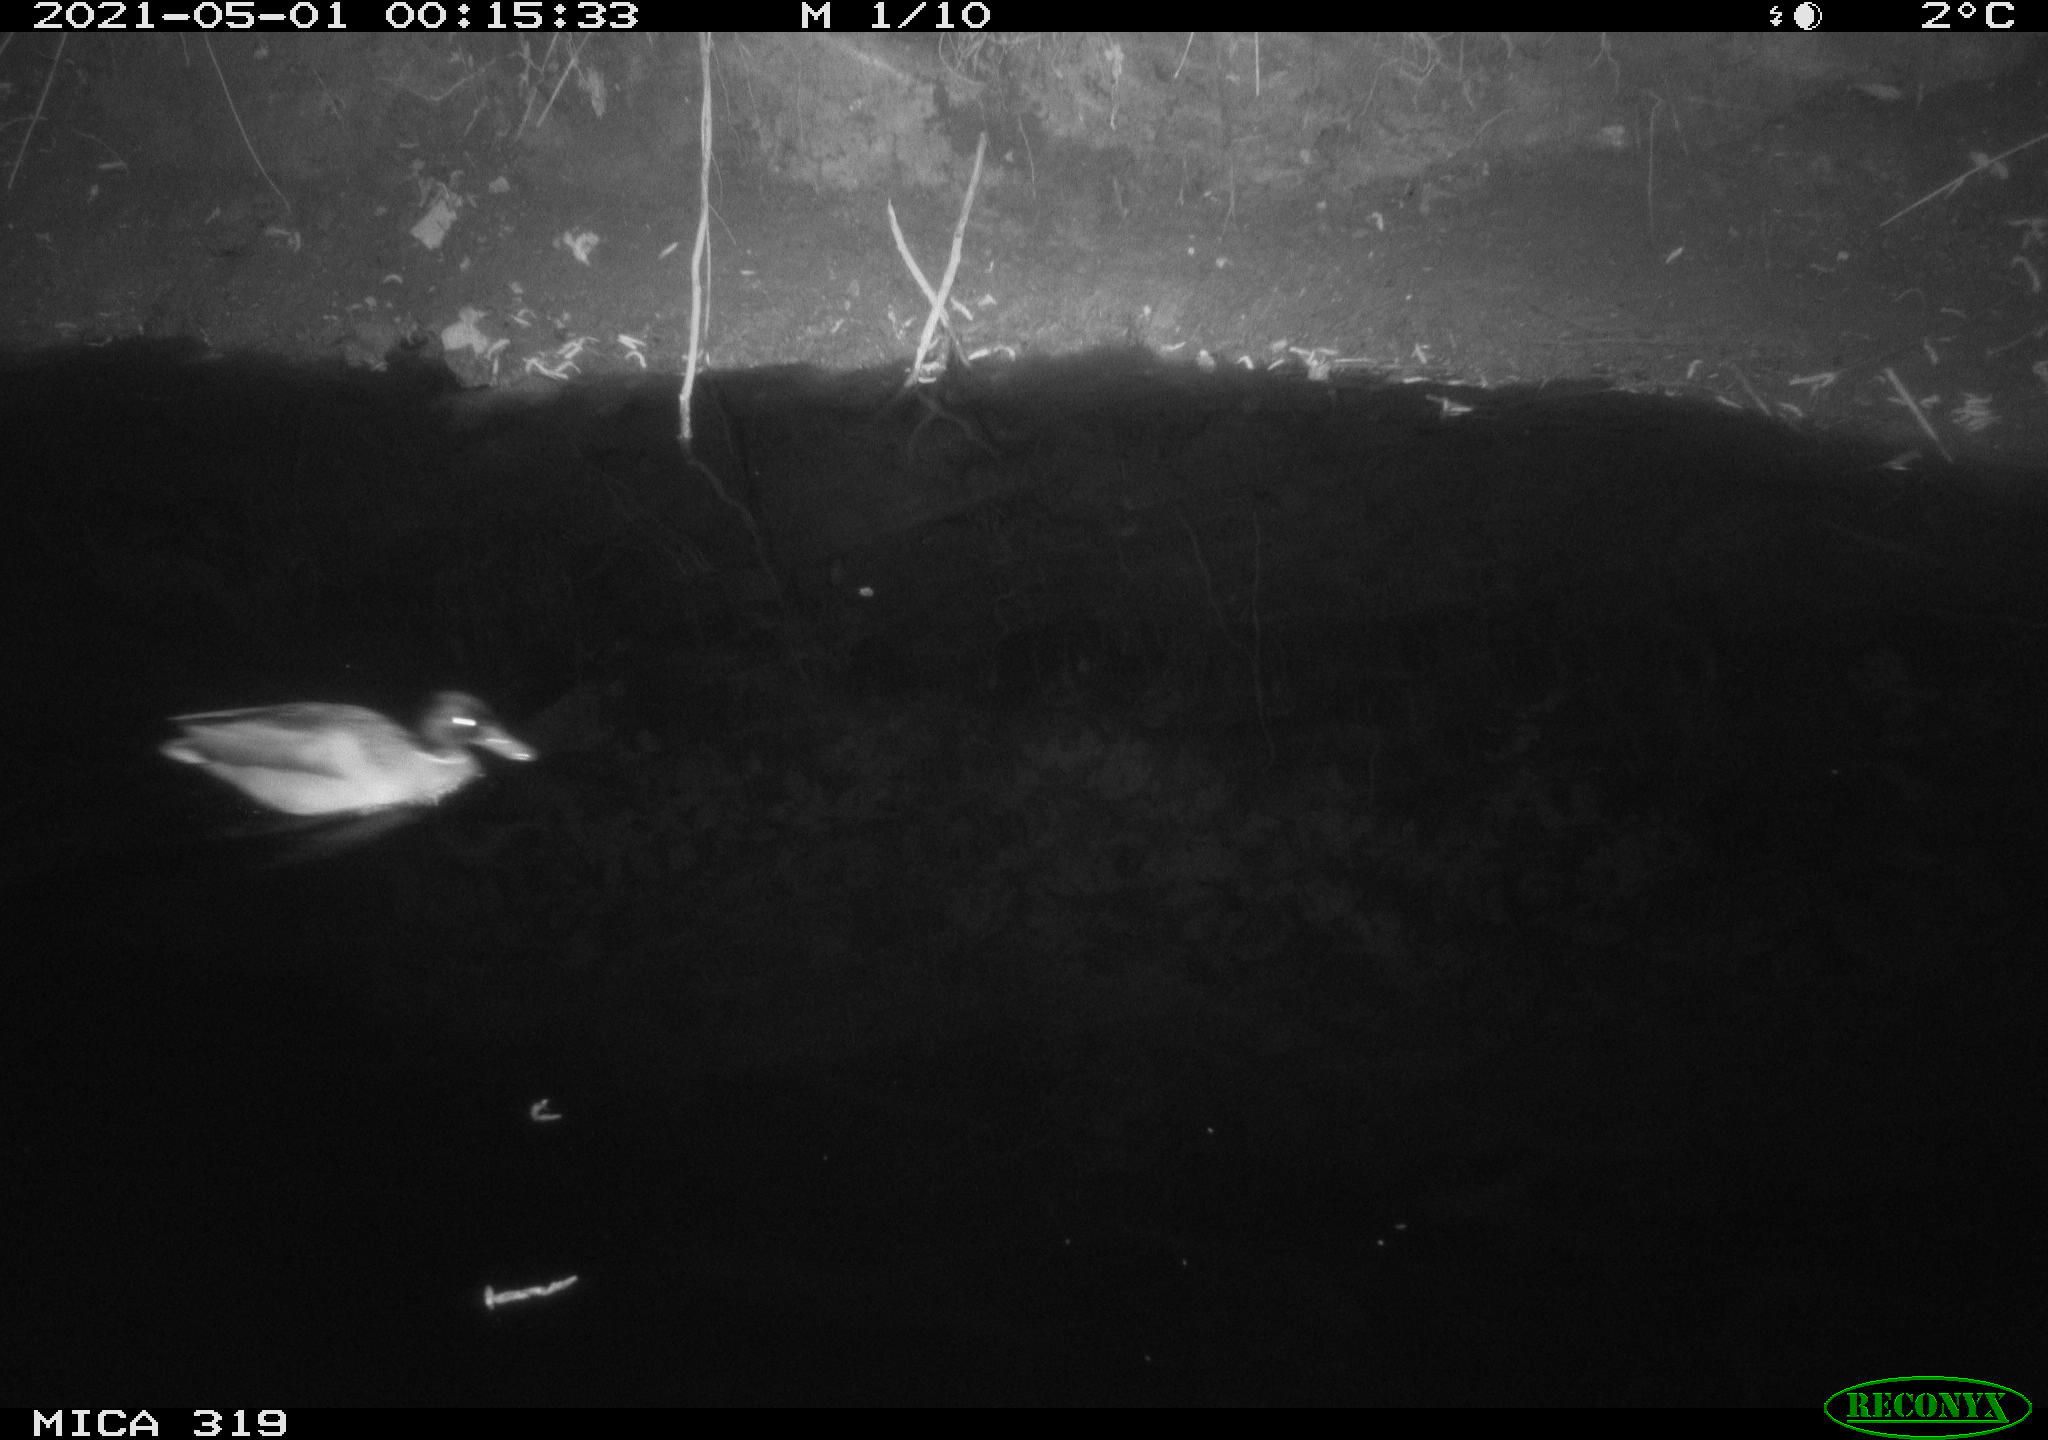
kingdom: Animalia
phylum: Chordata
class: Aves
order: Anseriformes
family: Anatidae
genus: Anas
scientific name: Anas platyrhynchos
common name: Mallard
